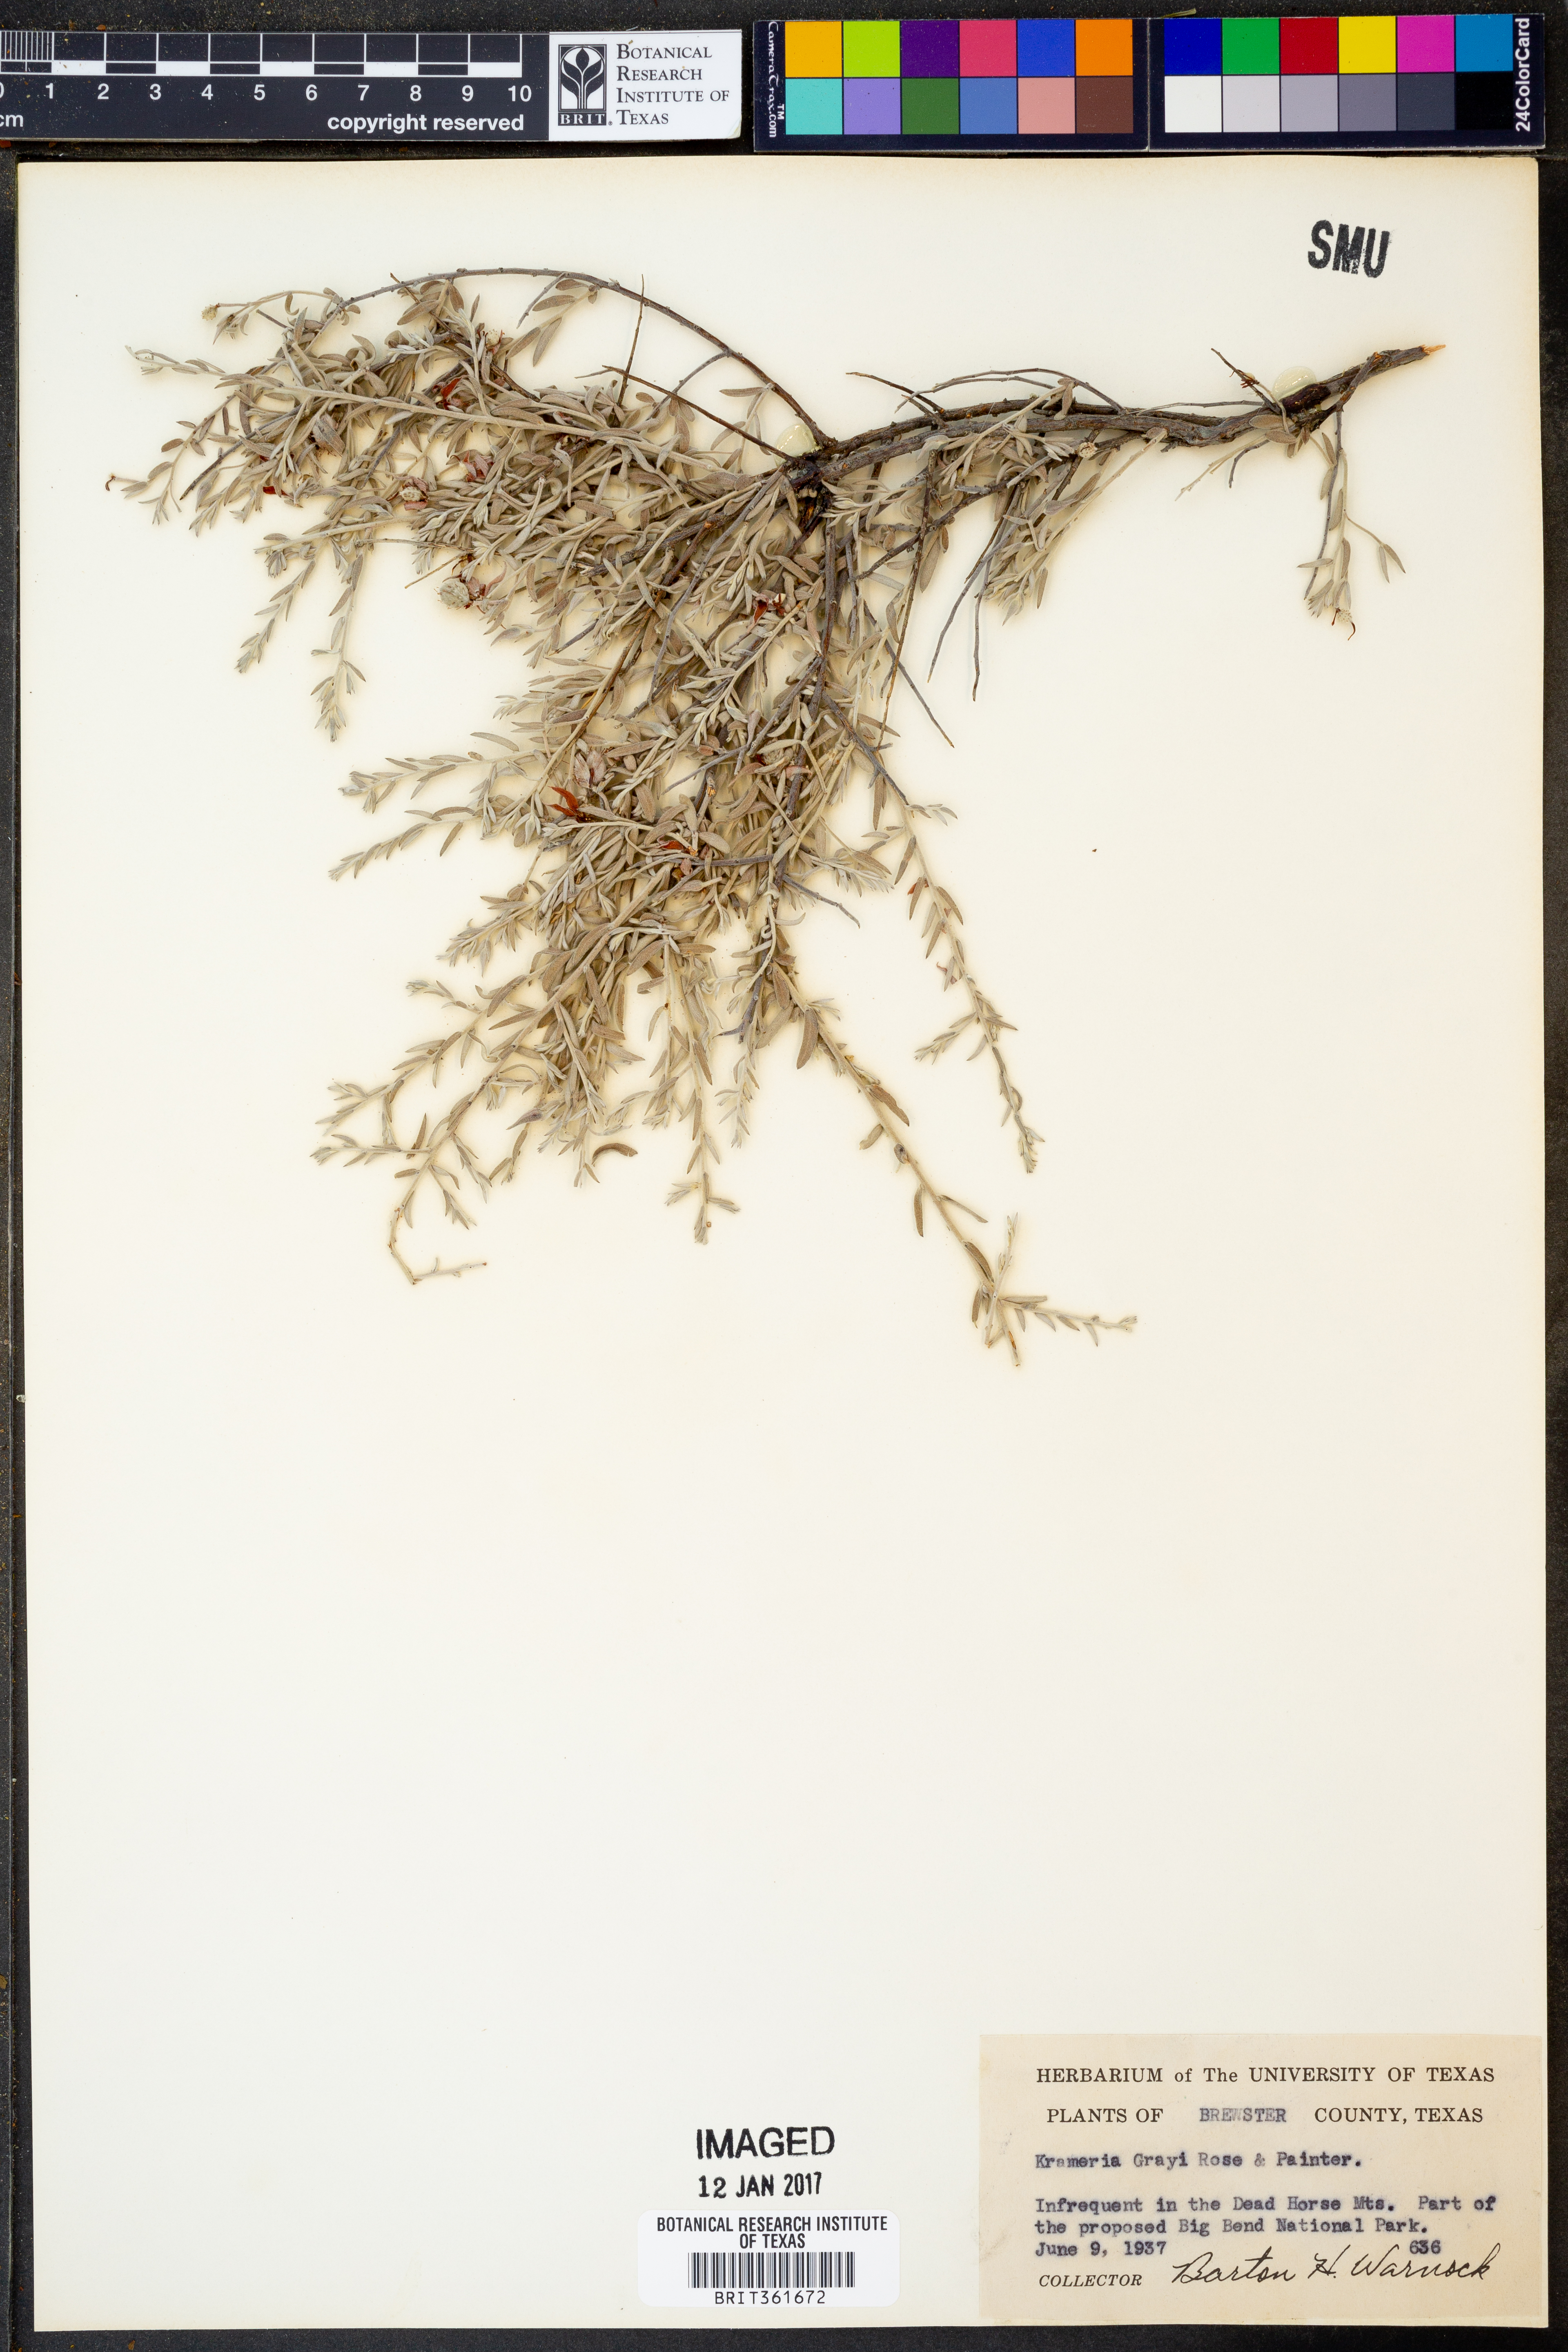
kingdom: Plantae
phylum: Tracheophyta
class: Magnoliopsida
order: Zygophyllales
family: Krameriaceae
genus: Krameria
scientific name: Krameria bicolor
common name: White ratany
